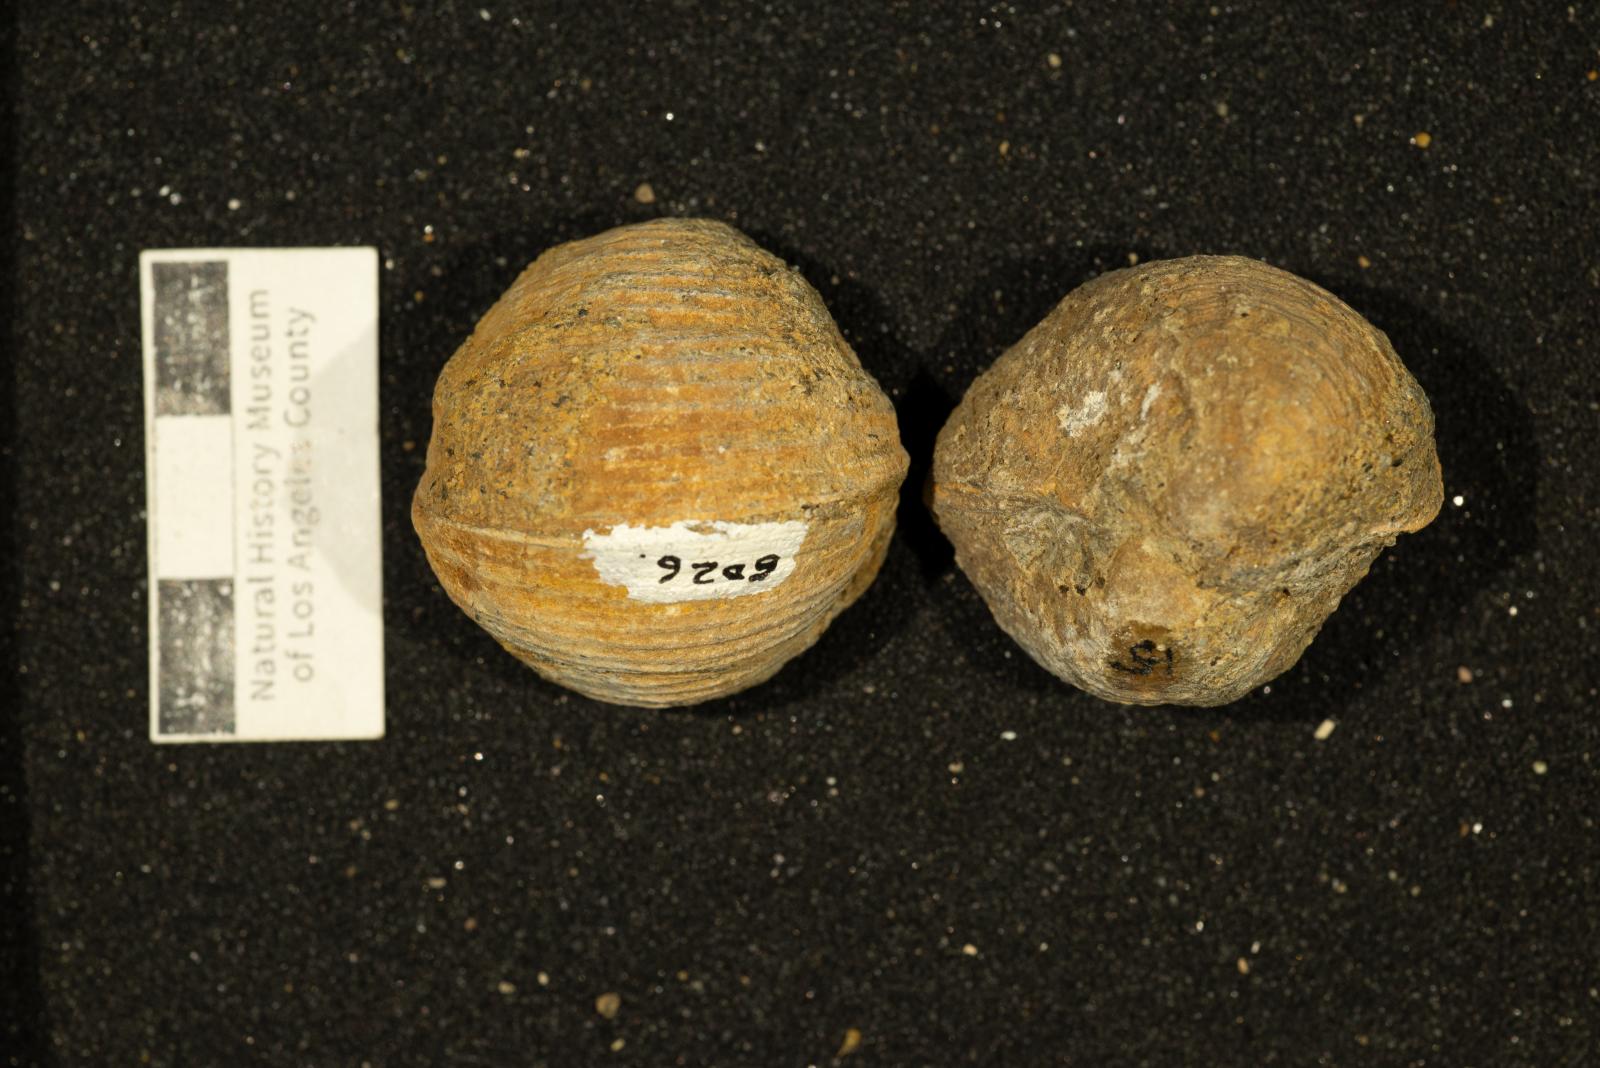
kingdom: Animalia
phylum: Mollusca
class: Bivalvia
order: Adapedonta
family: Edmondiidae
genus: Clisocolus
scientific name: Clisocolus corrugatus
